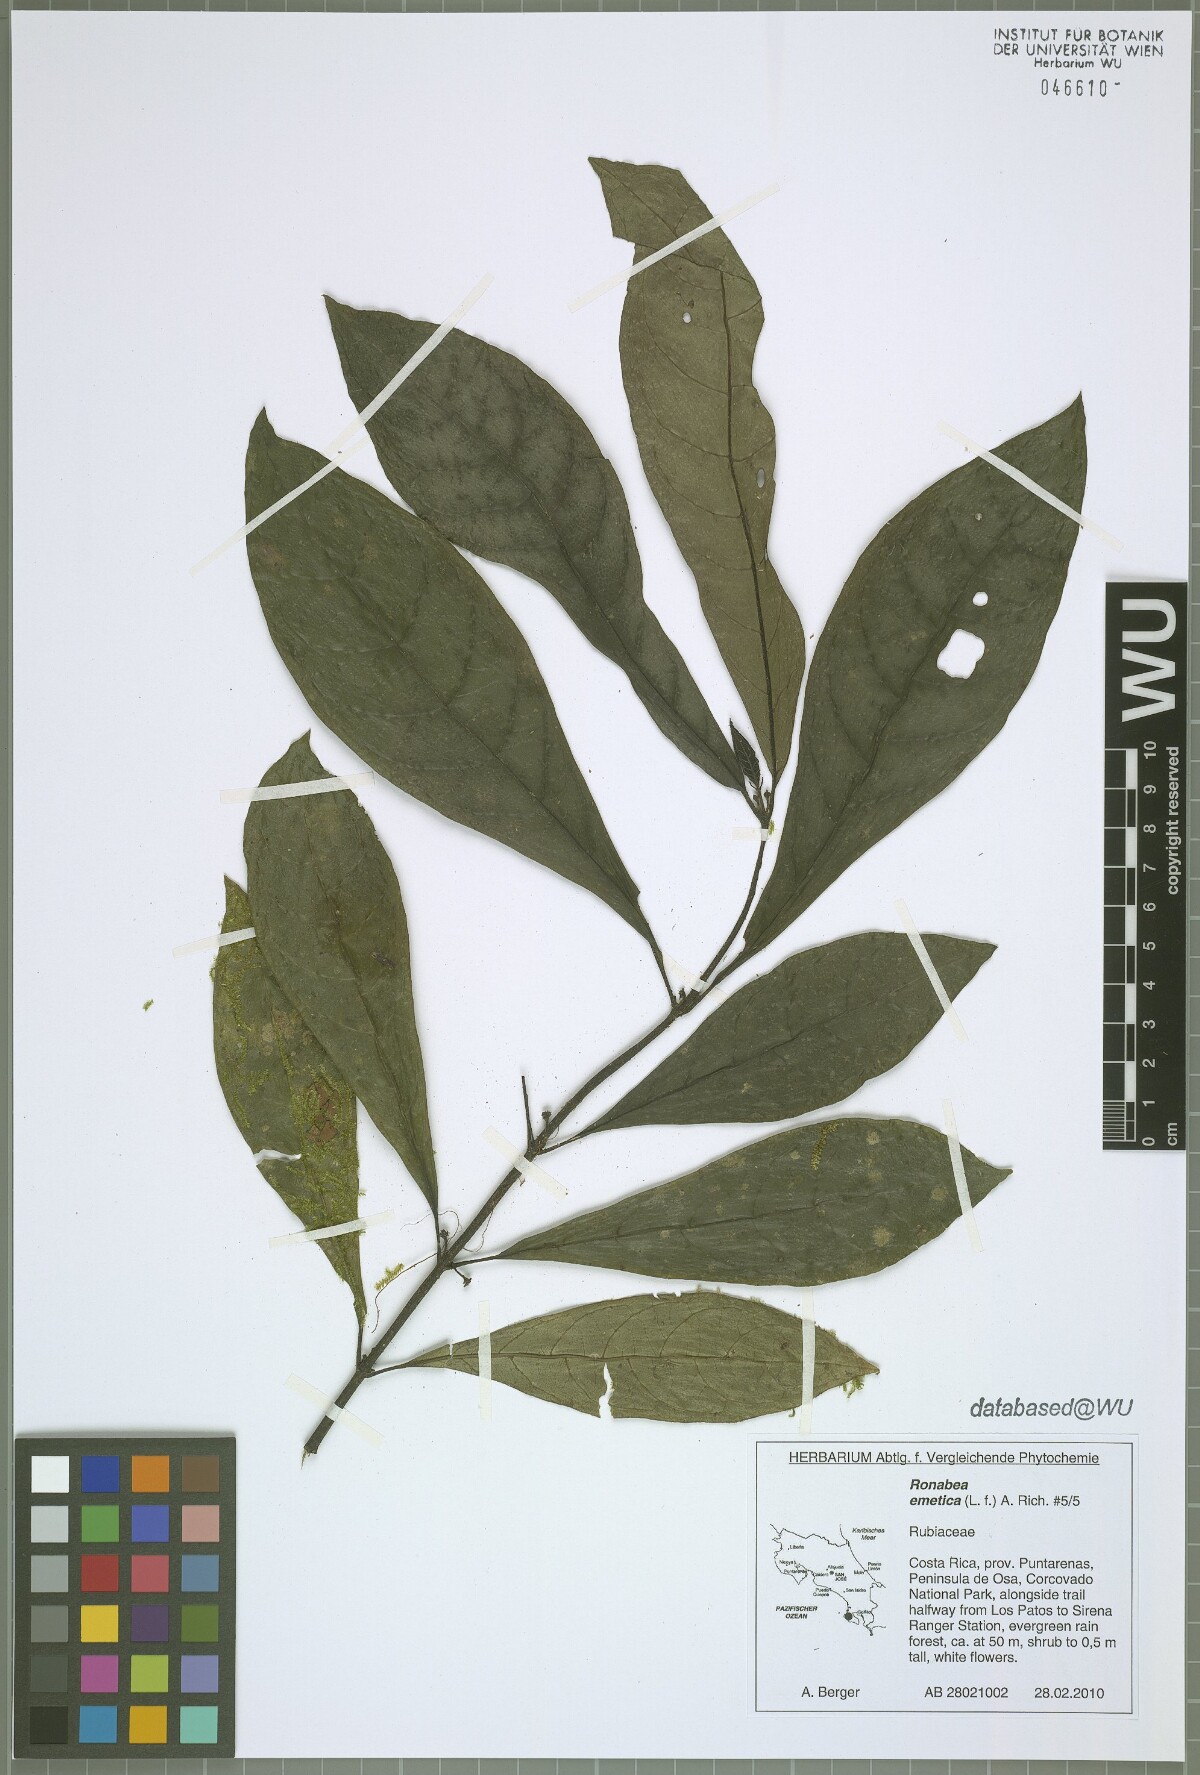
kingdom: Plantae
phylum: Tracheophyta
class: Magnoliopsida
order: Gentianales
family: Rubiaceae
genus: Ronabea
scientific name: Ronabea emetica
